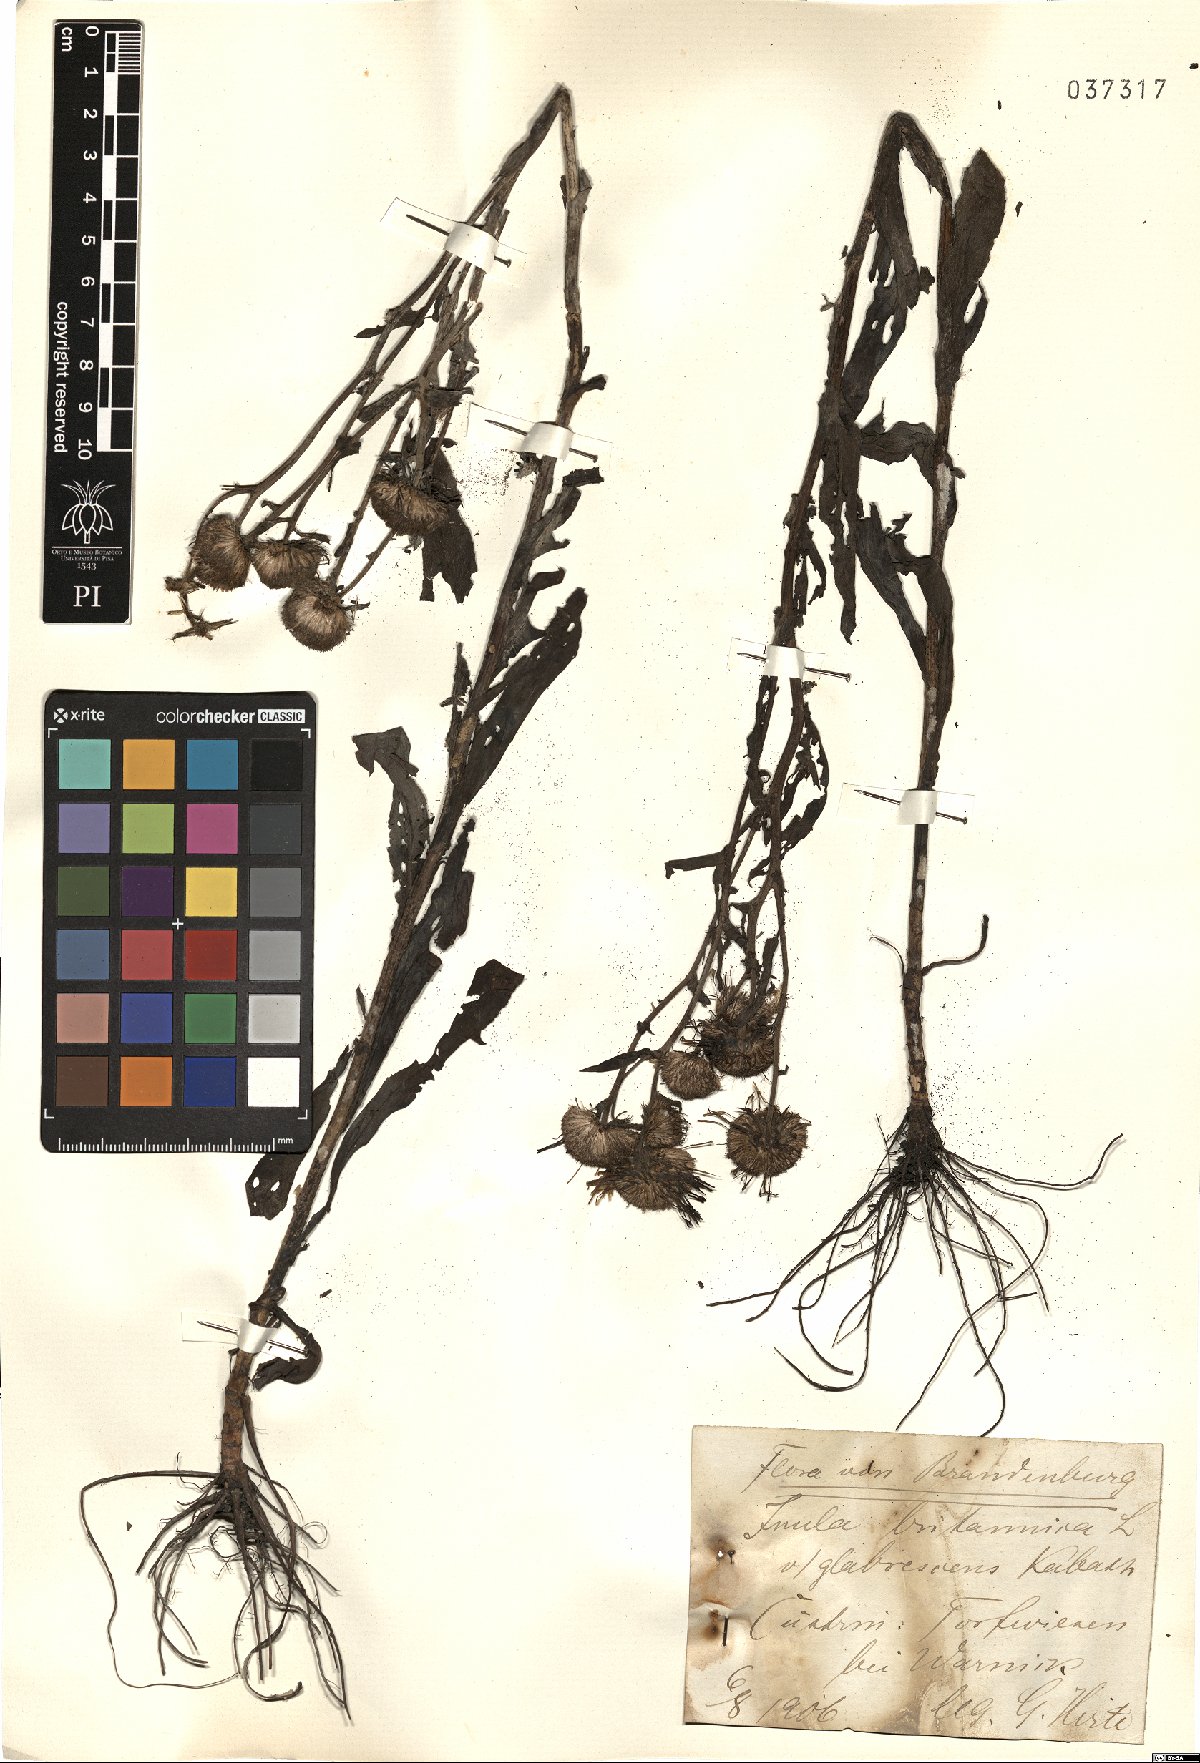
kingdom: Plantae
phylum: Tracheophyta
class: Magnoliopsida
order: Asterales
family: Asteraceae
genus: Pentanema
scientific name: Pentanema britannicum
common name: British elecampane
